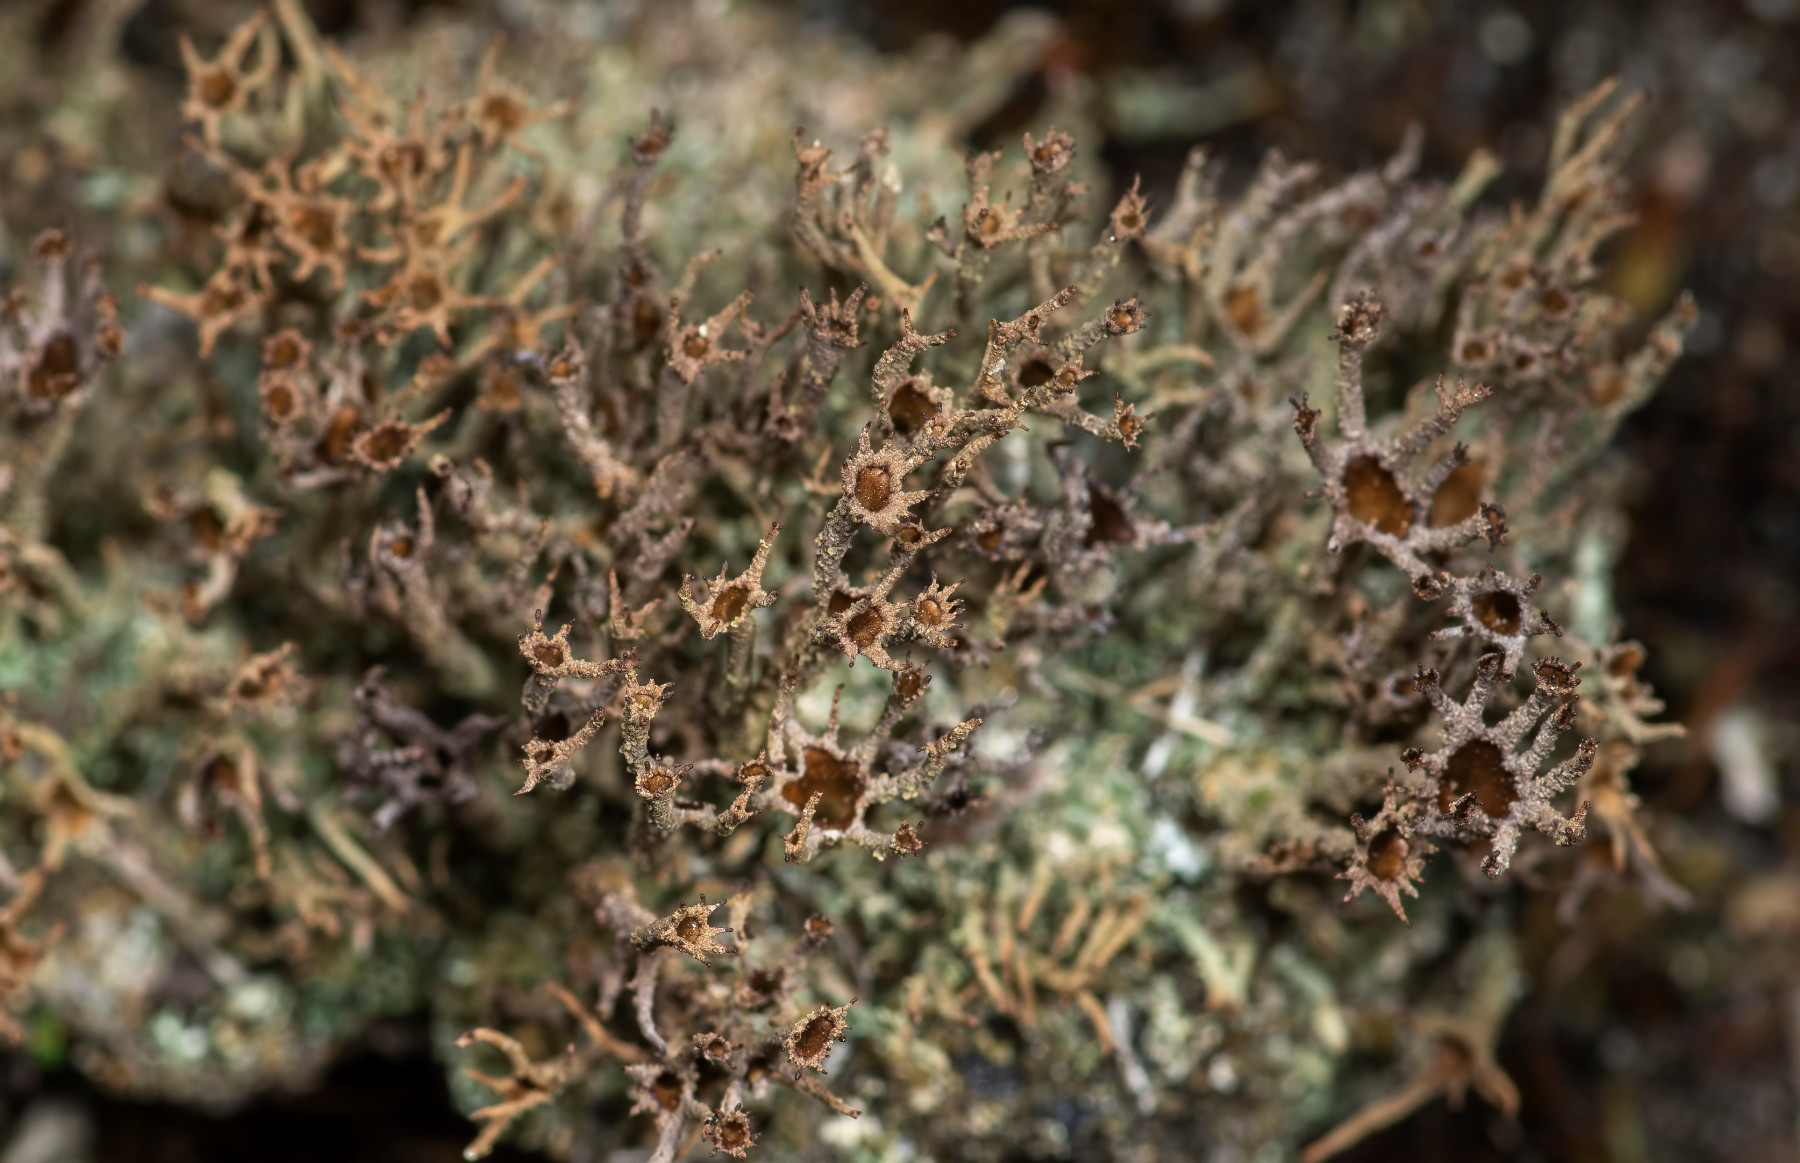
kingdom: Fungi
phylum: Ascomycota
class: Lecanoromycetes
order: Lecanorales
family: Cladoniaceae
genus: Cladonia
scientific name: Cladonia crispata
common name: Organ-pipe lichen
